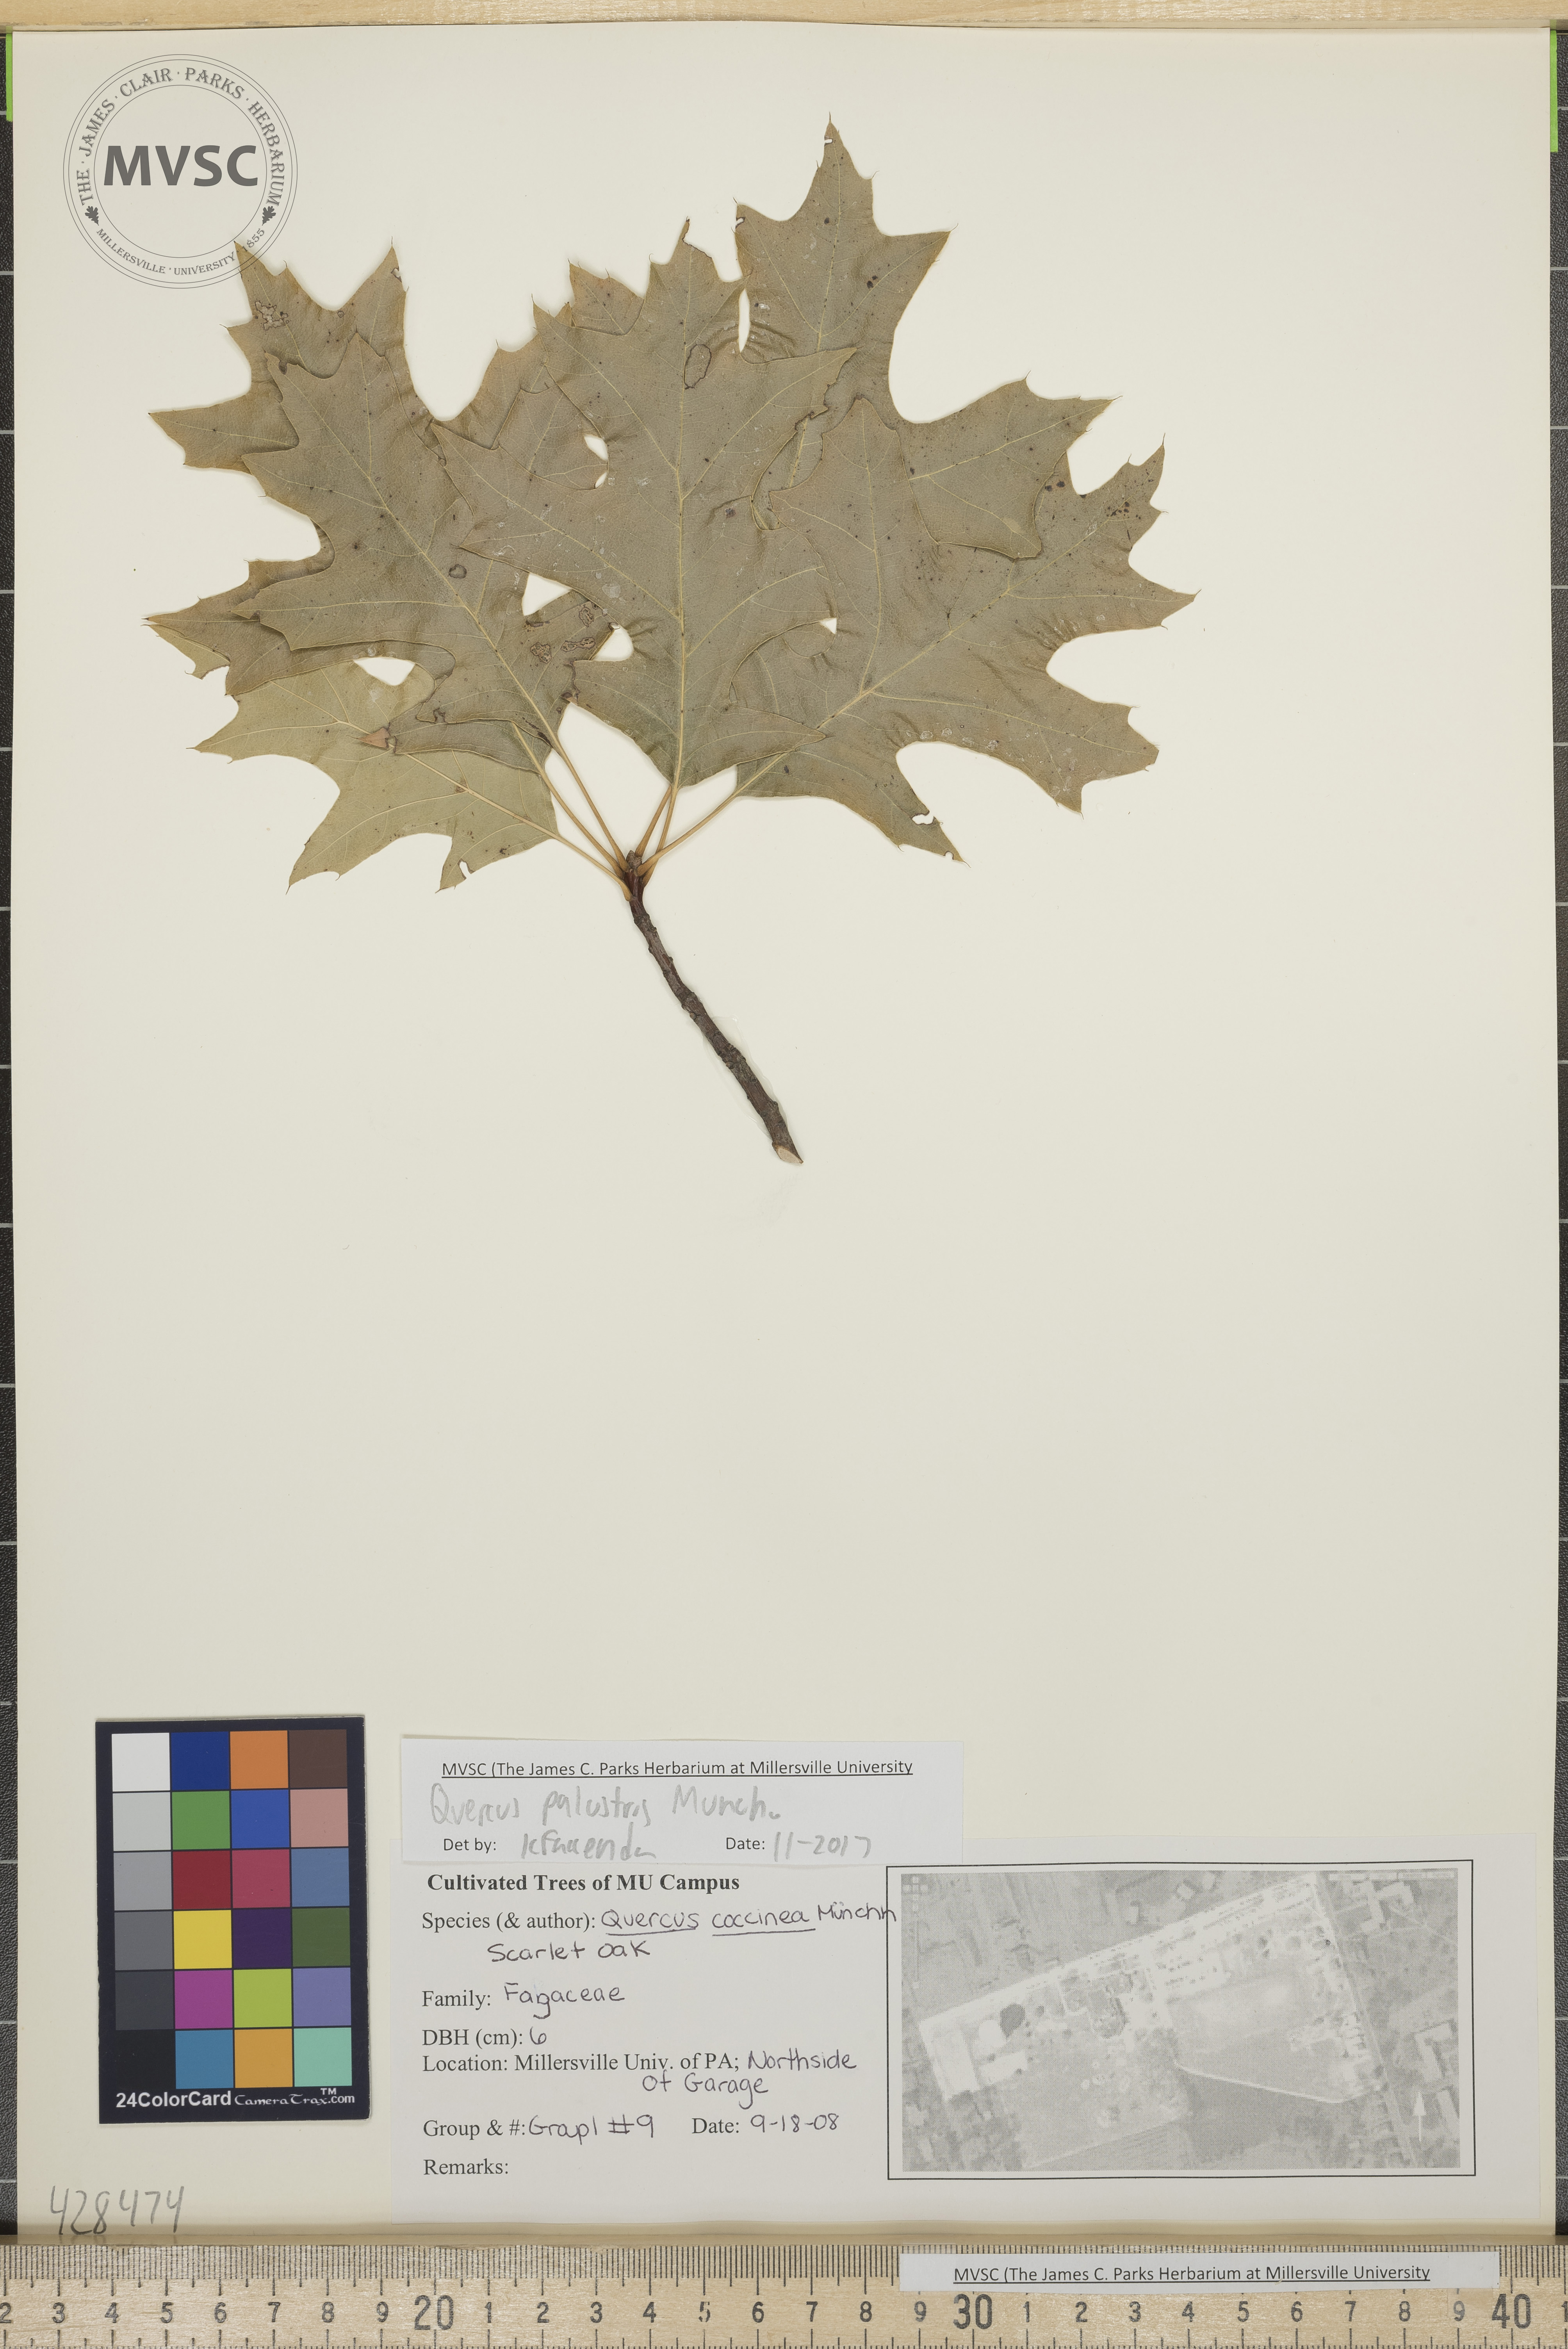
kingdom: Plantae
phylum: Tracheophyta
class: Magnoliopsida
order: Fagales
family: Fagaceae
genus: Quercus
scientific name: Quercus palustris
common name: Pin oak
